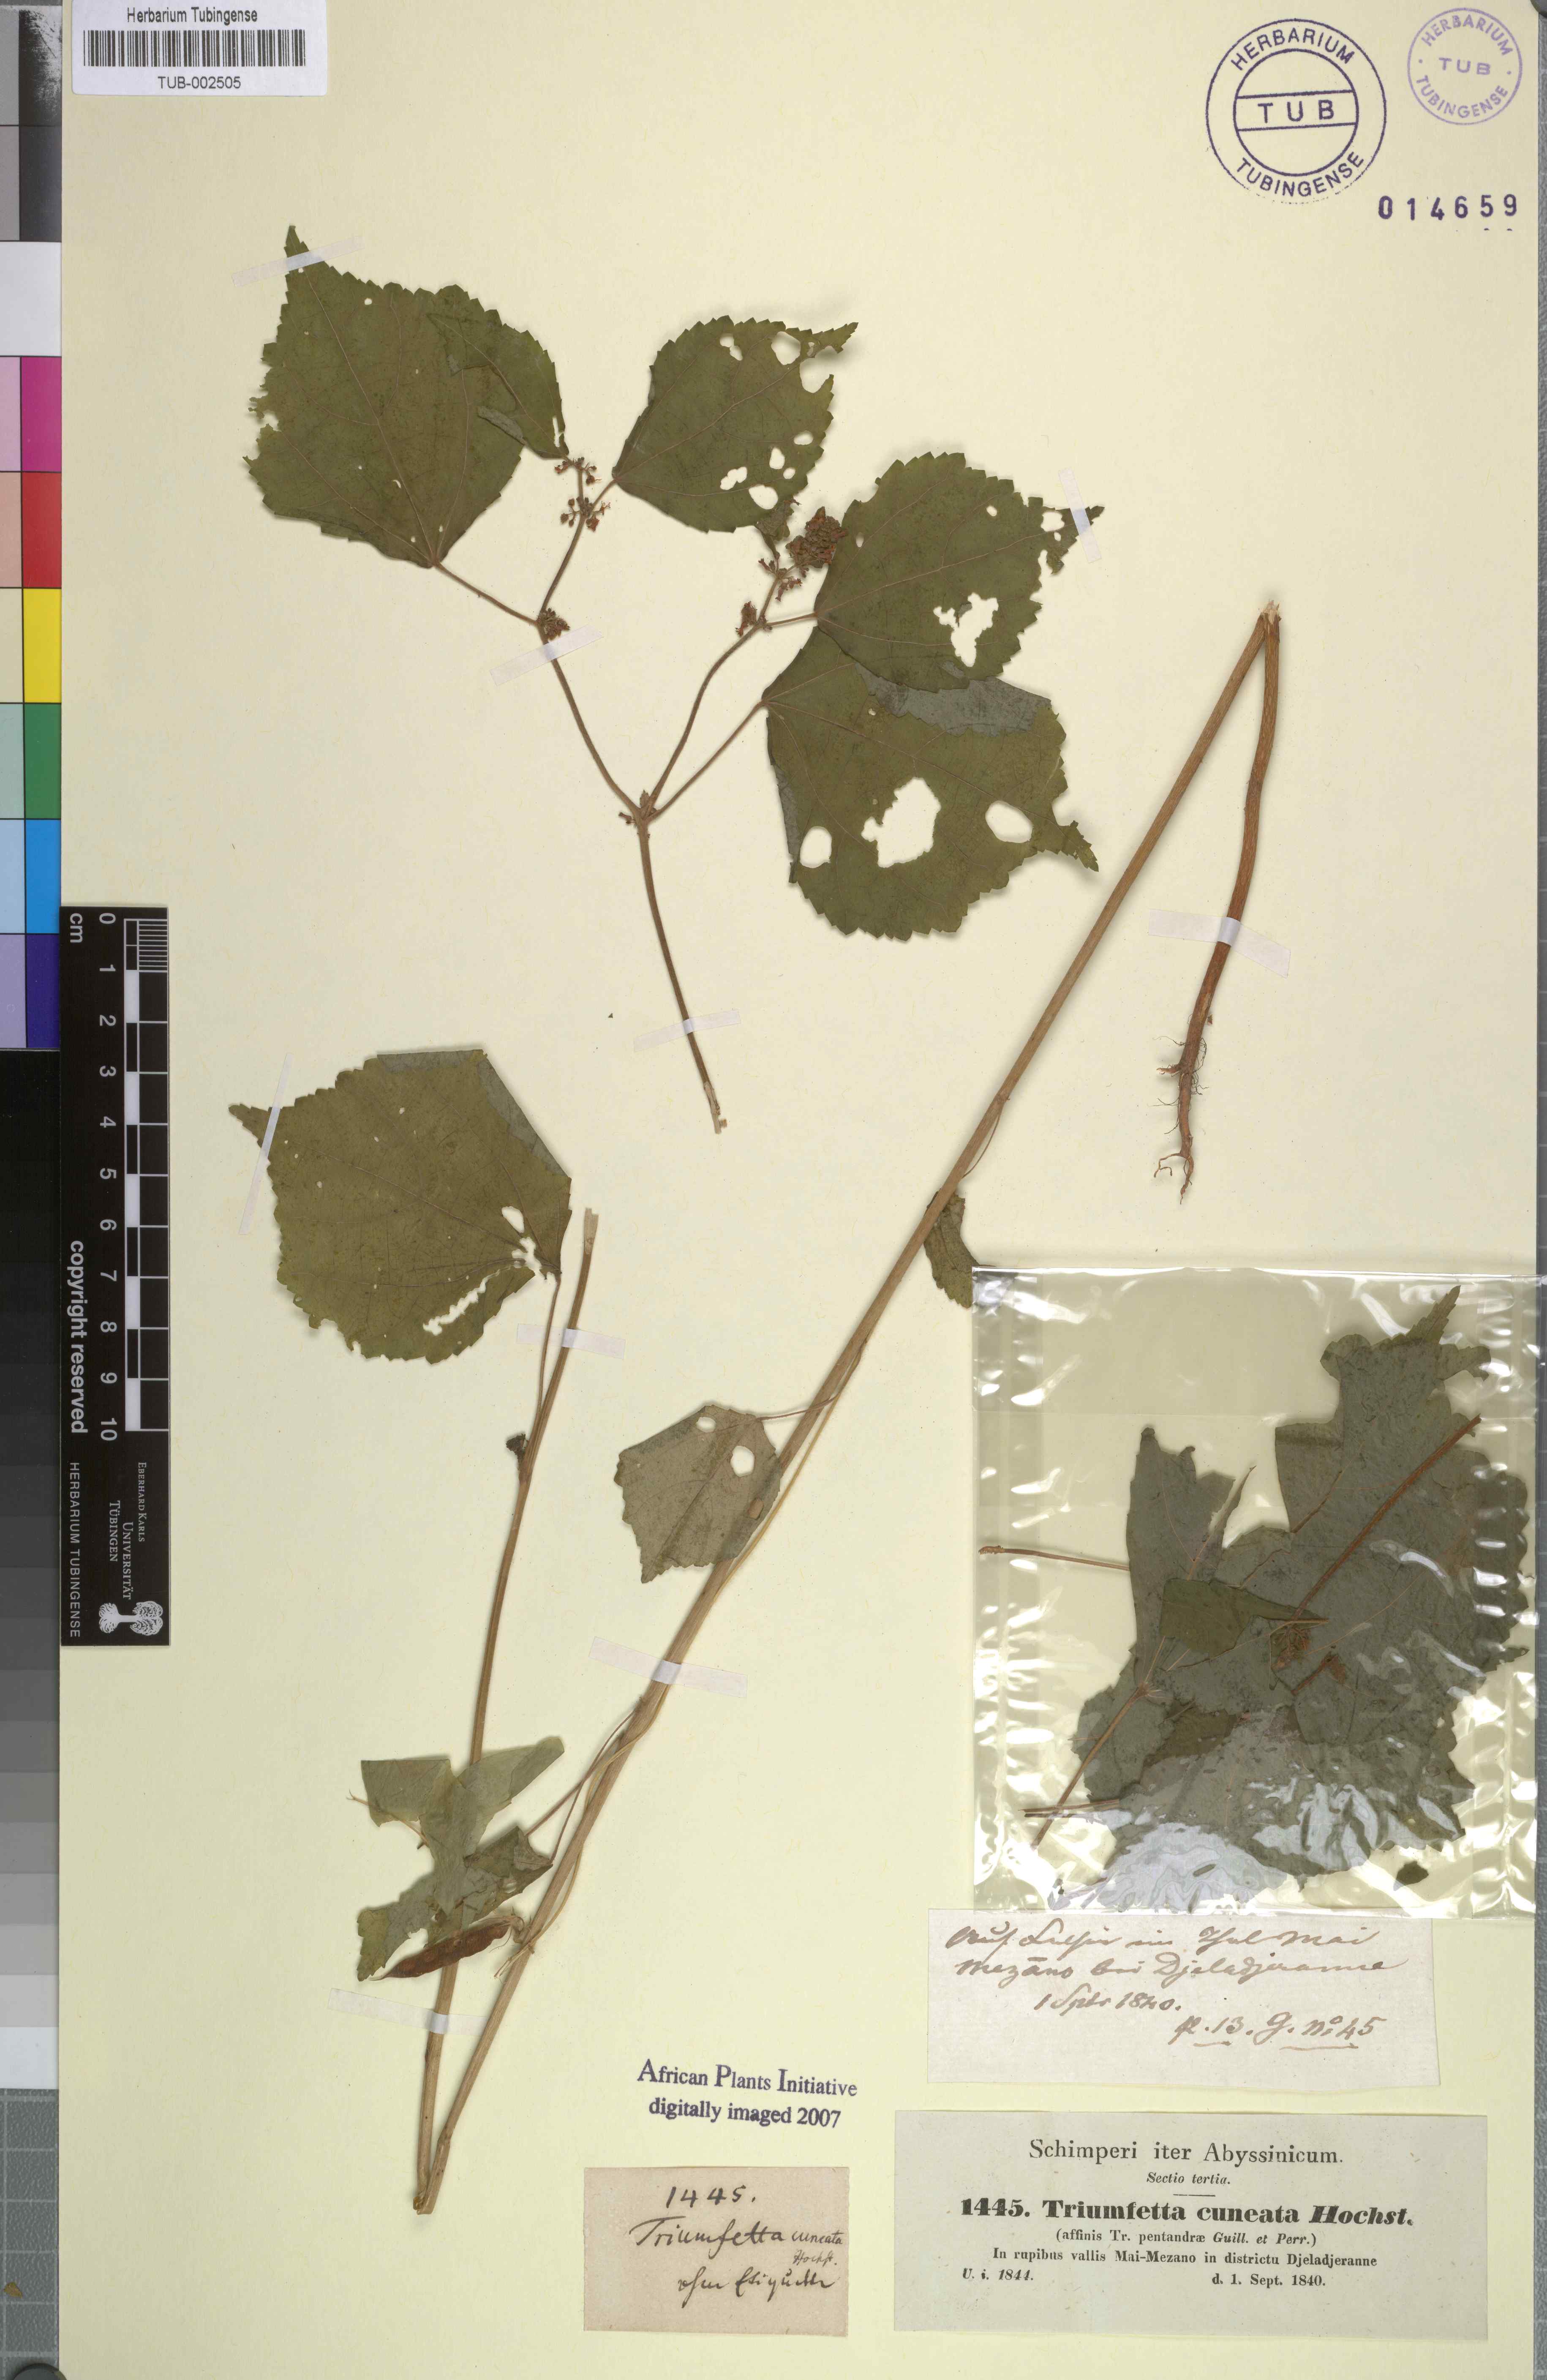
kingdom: Plantae
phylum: Tracheophyta
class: Magnoliopsida
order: Malvales
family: Malvaceae
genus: Triumfetta
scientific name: Triumfetta pentandra
